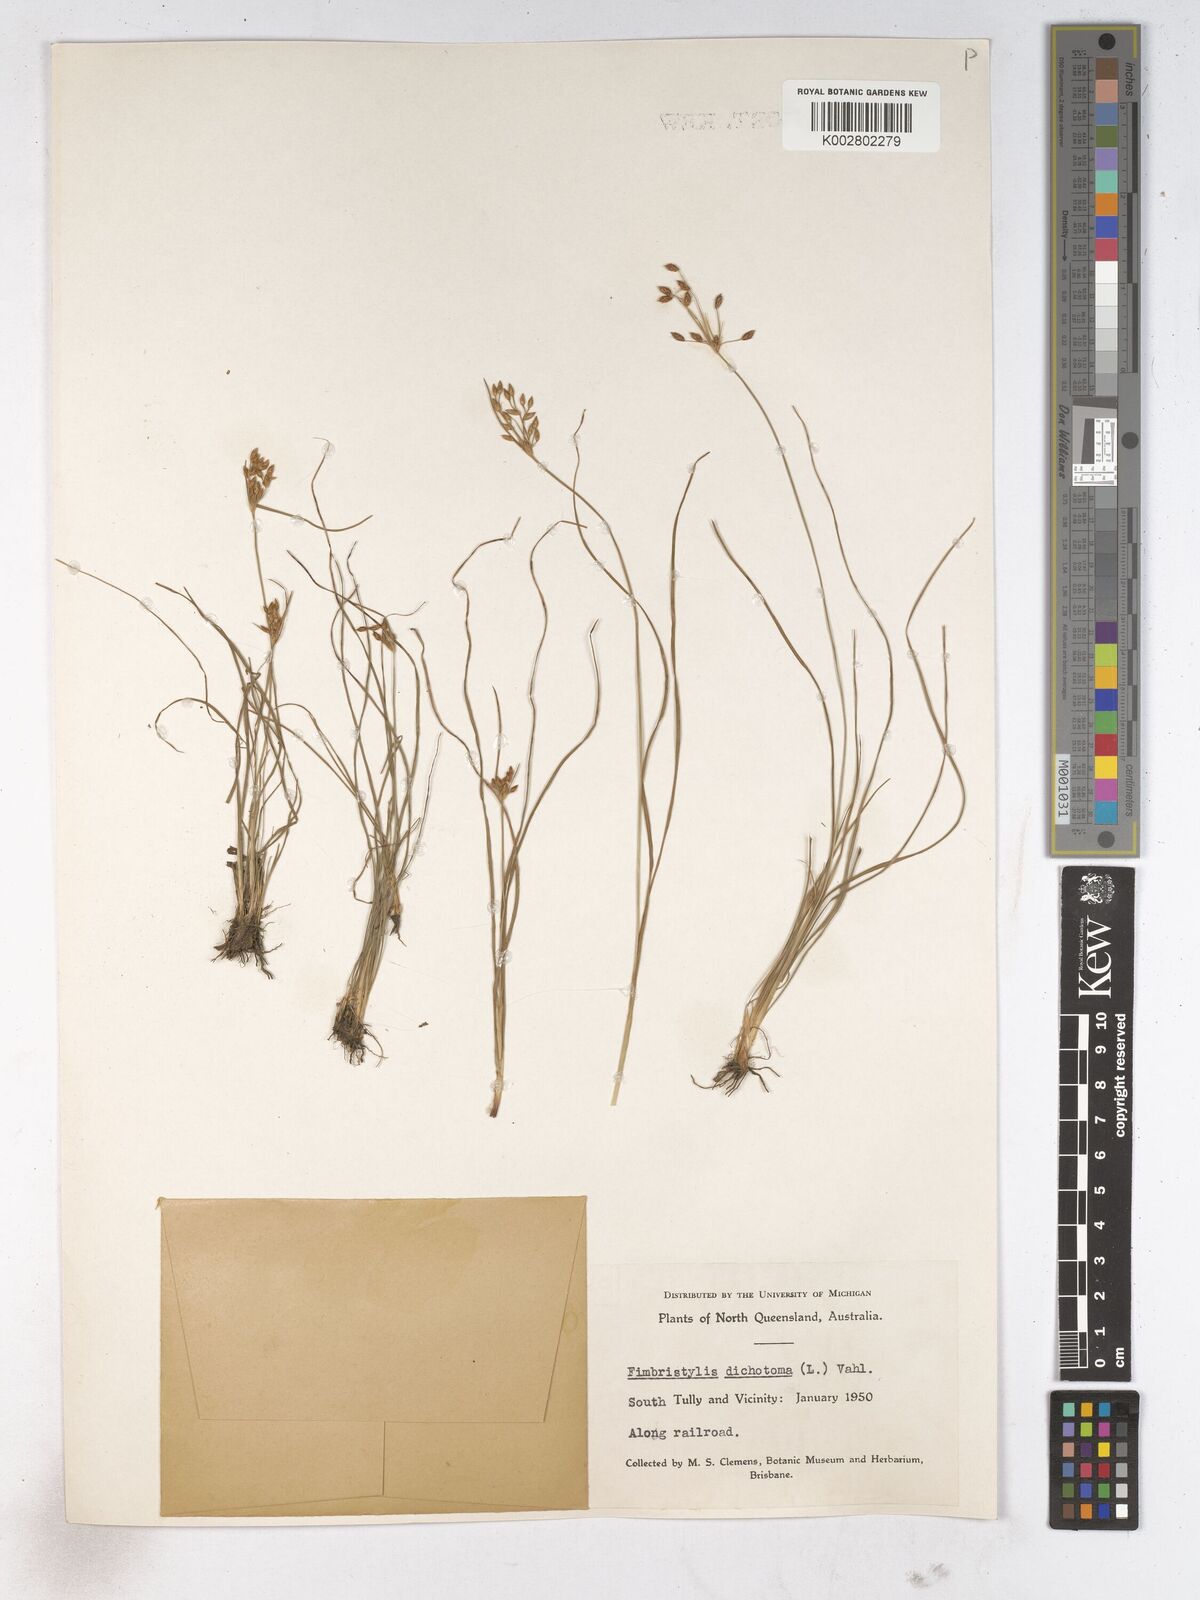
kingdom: Plantae
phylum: Tracheophyta
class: Liliopsida
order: Poales
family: Cyperaceae
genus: Fimbristylis
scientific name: Fimbristylis dichotoma
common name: Forked fimbry
